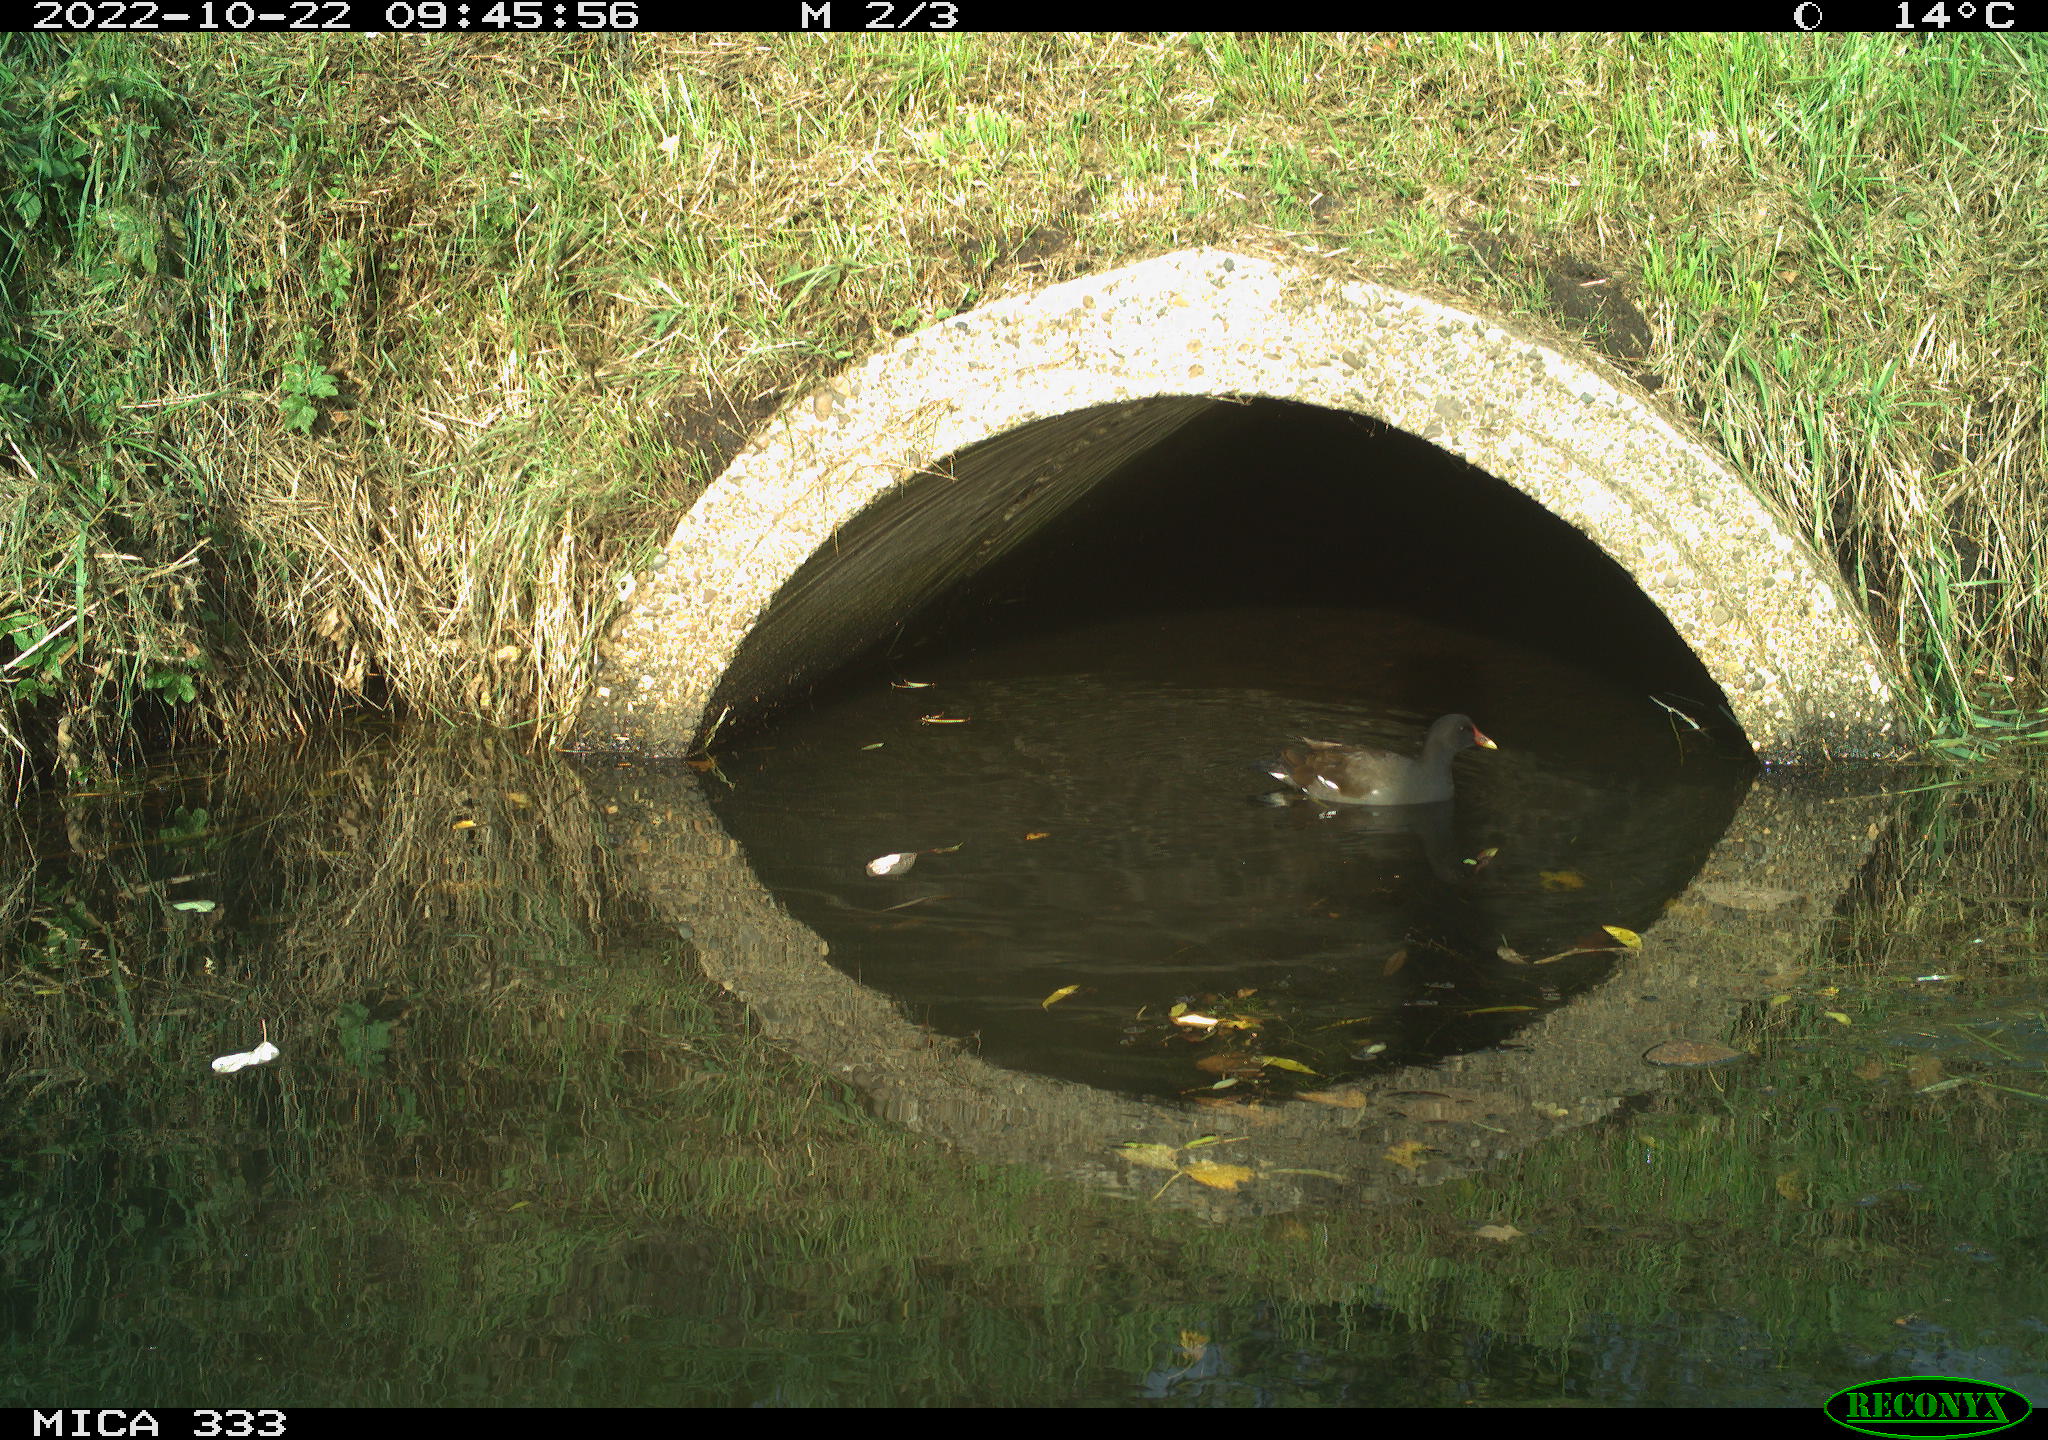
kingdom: Animalia
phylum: Chordata
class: Aves
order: Gruiformes
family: Rallidae
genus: Gallinula
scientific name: Gallinula chloropus
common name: Common moorhen
